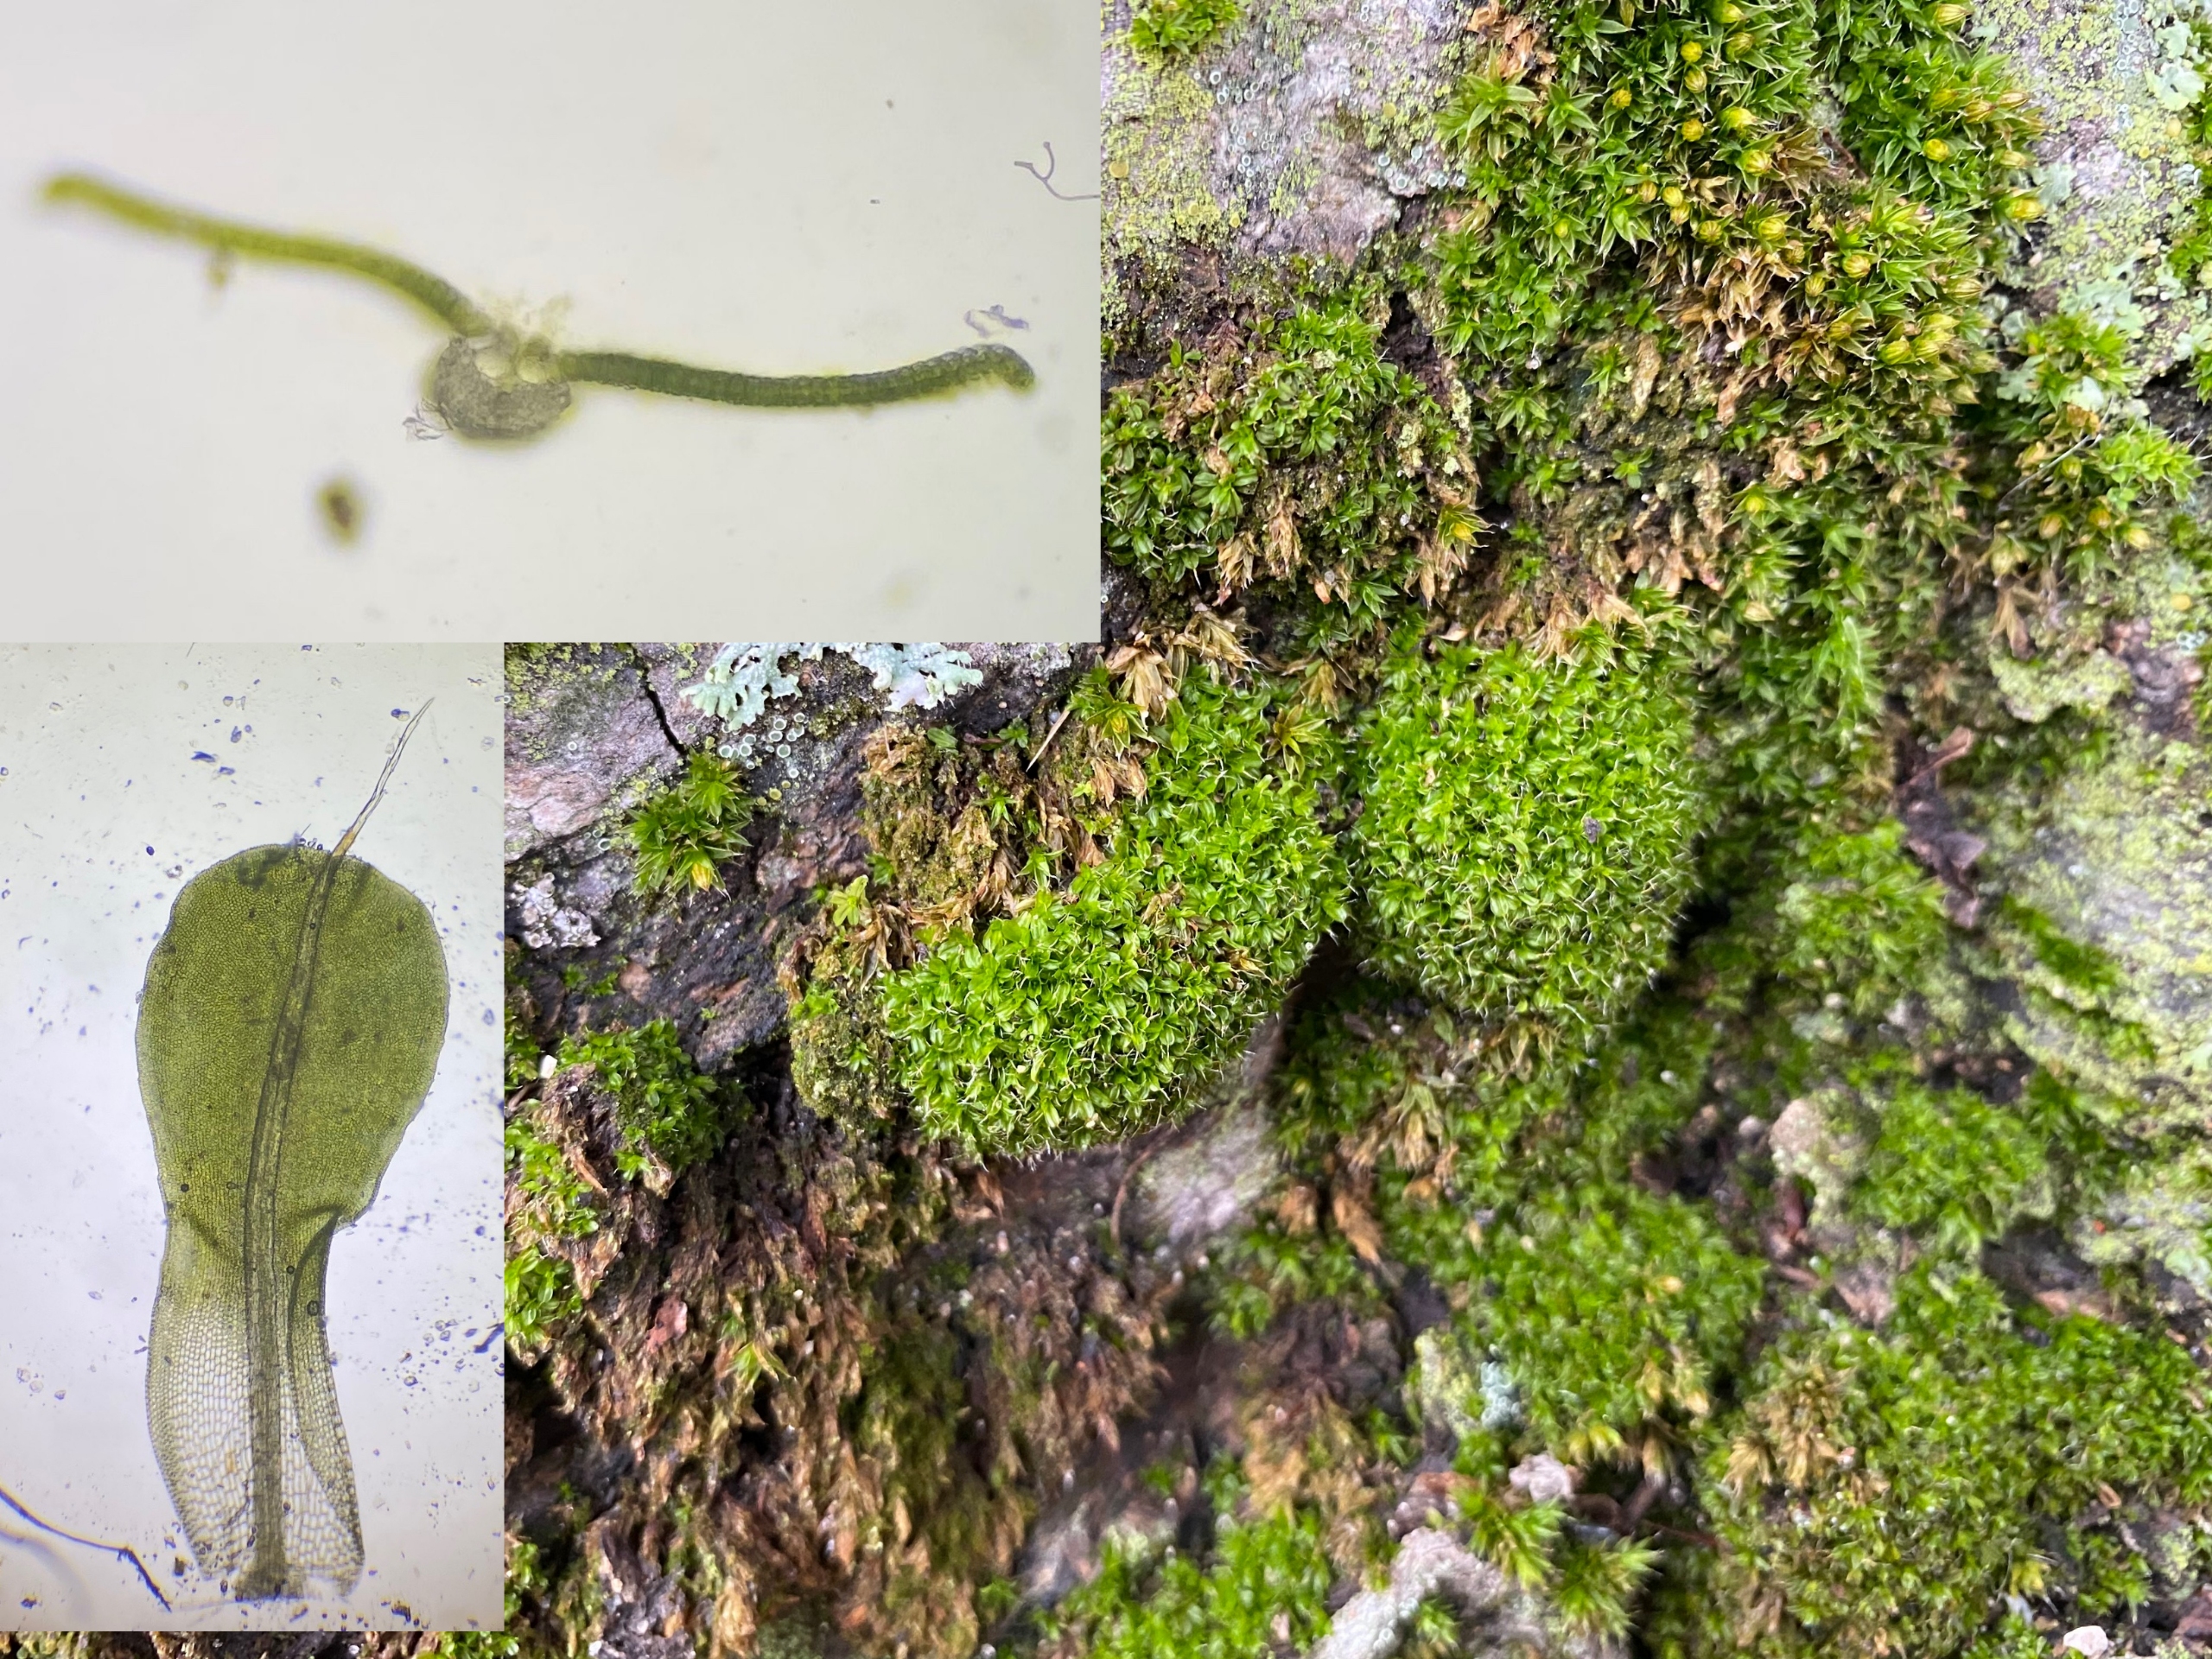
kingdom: Plantae
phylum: Bryophyta
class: Bryopsida
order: Pottiales
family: Pottiaceae
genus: Syntrichia
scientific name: Syntrichia laevipila
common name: Træ-hårstjerne
